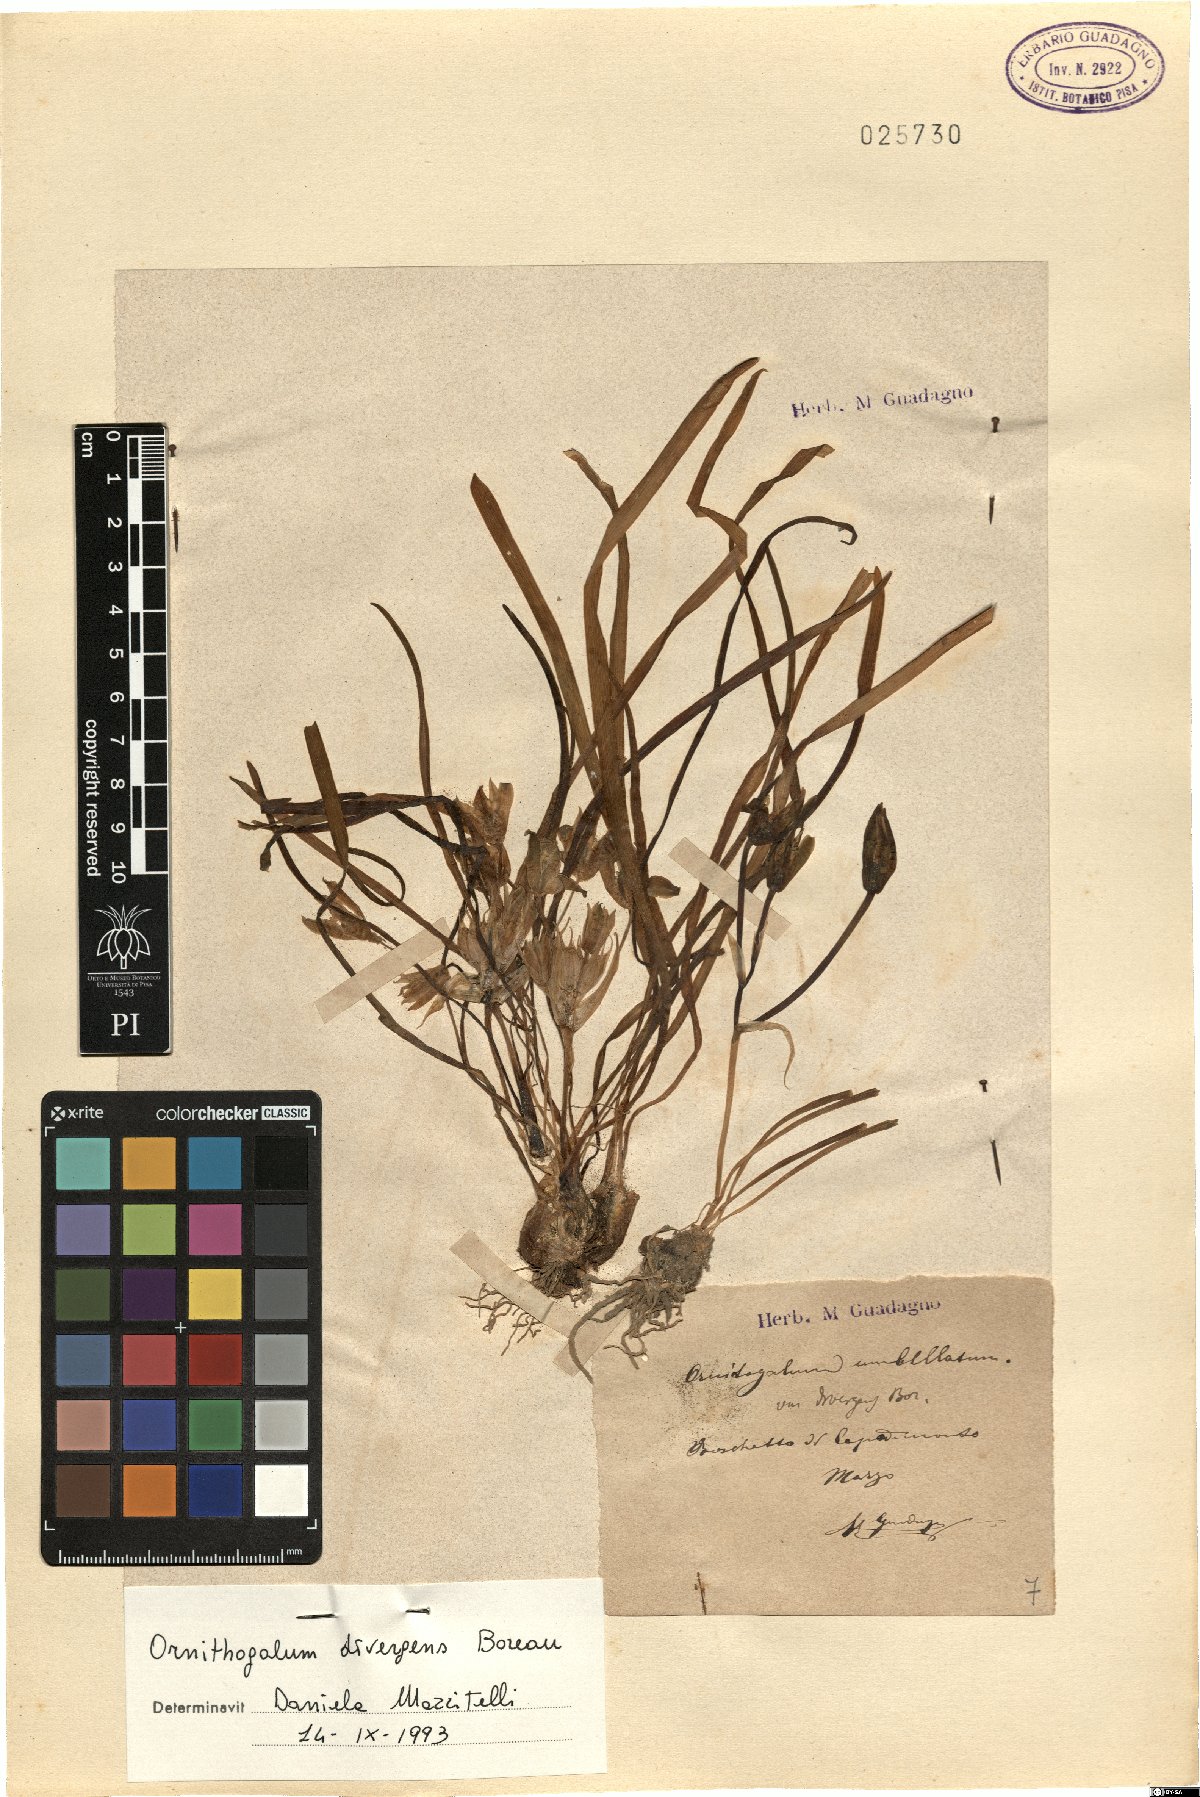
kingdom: Plantae
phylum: Tracheophyta
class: Liliopsida
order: Asparagales
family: Asparagaceae
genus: Ornithogalum
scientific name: Ornithogalum divergens
